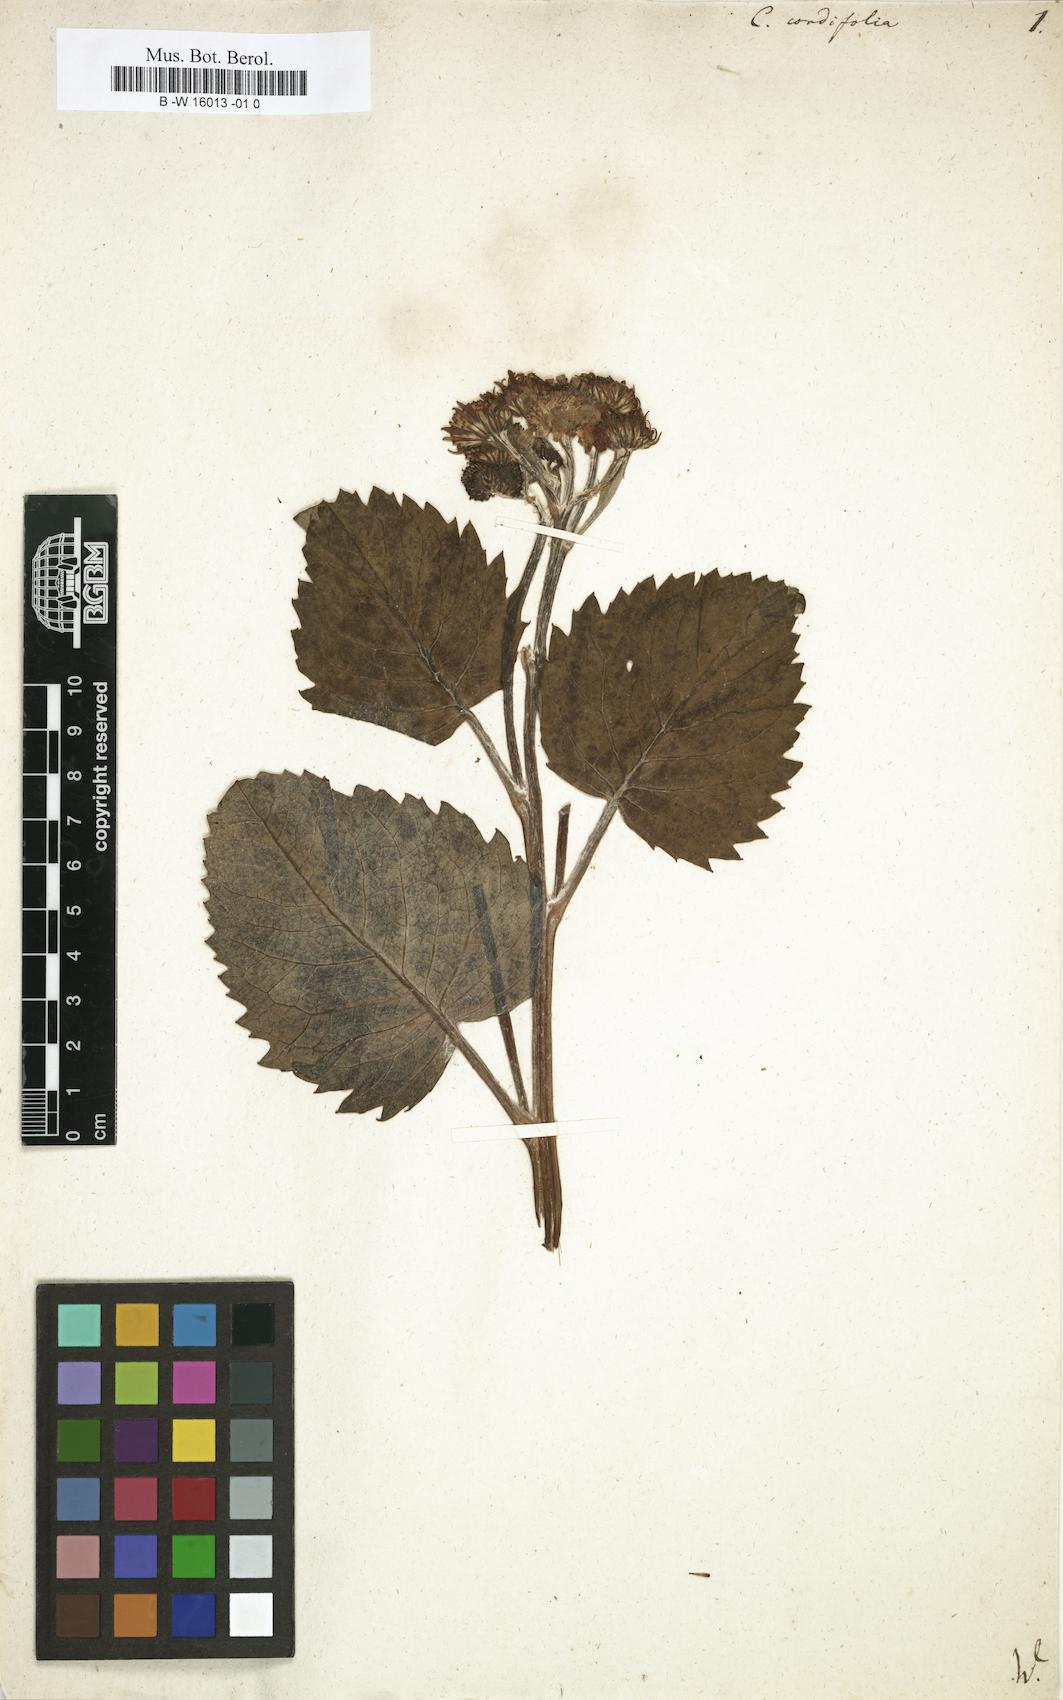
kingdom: Plantae
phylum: Tracheophyta
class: Magnoliopsida
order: Asterales
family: Asteraceae
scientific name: Asteraceae
